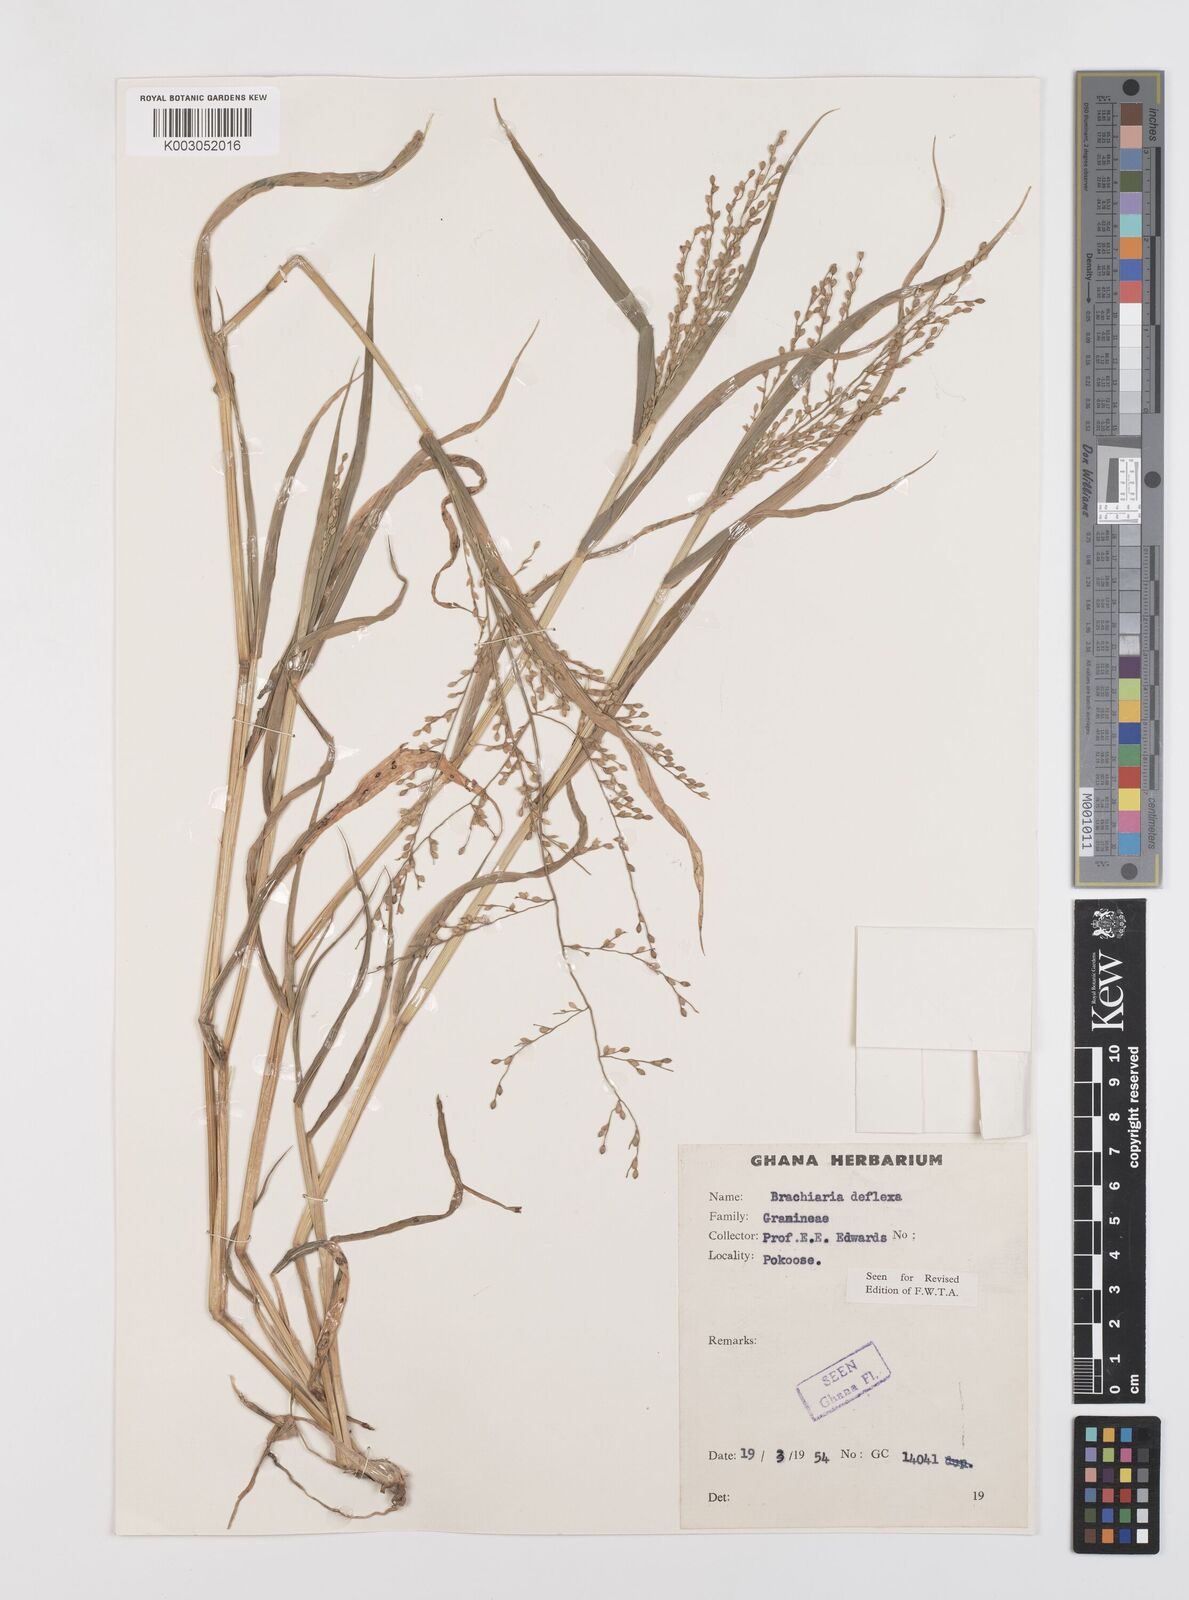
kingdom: Plantae
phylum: Tracheophyta
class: Liliopsida
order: Poales
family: Poaceae
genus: Urochloa
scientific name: Urochloa deflexa
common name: Guinea millet
